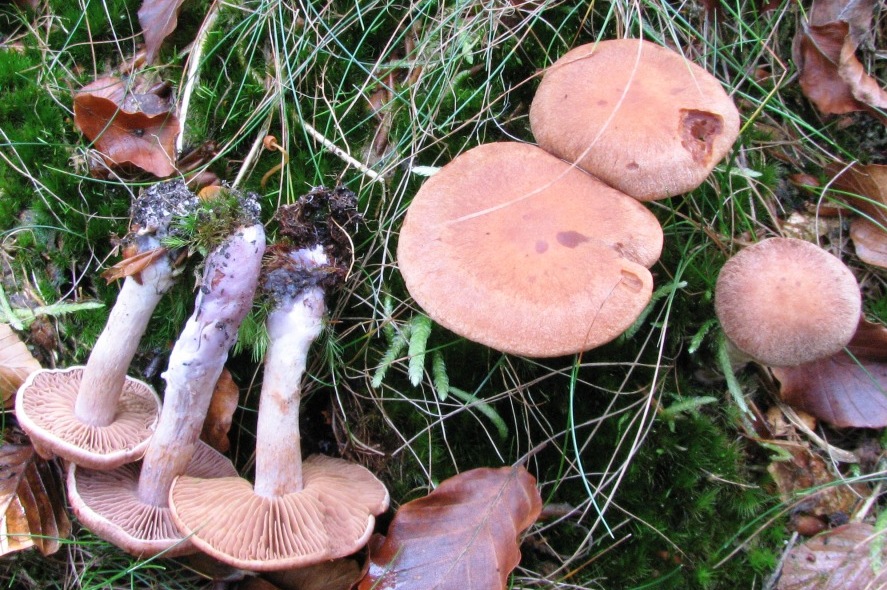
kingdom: Fungi
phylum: Basidiomycota
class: Agaricomycetes
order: Agaricales
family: Cortinariaceae
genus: Cortinarius
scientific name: Cortinarius simulatus
